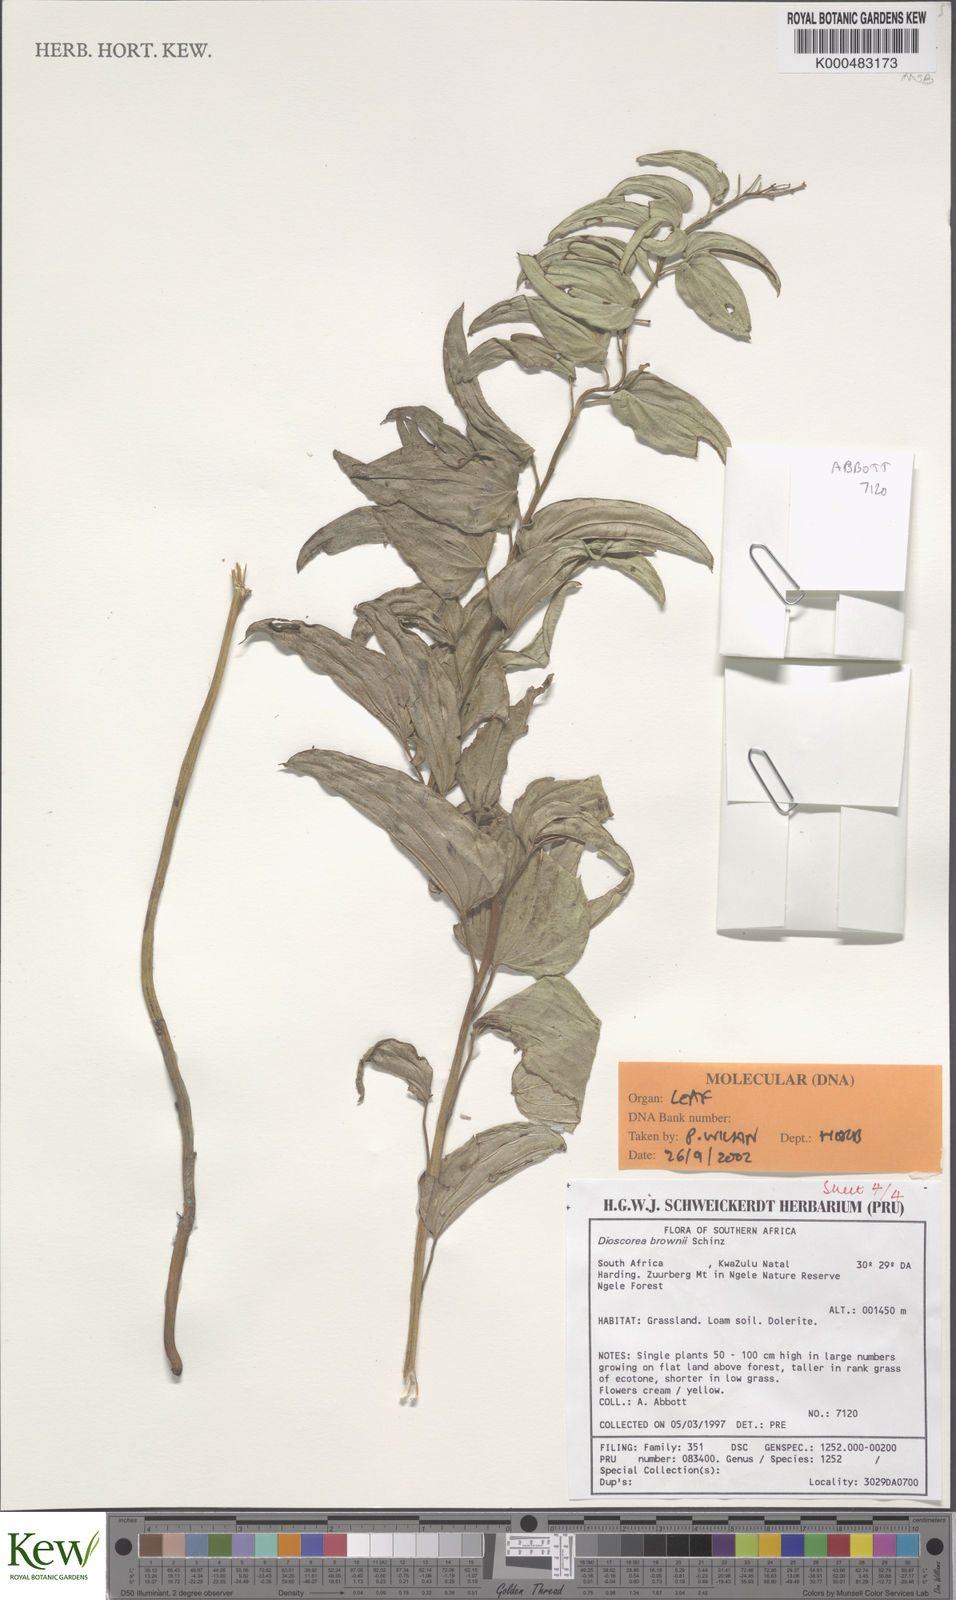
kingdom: Plantae
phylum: Tracheophyta
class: Liliopsida
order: Dioscoreales
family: Dioscoreaceae
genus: Dioscorea
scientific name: Dioscorea brownii
